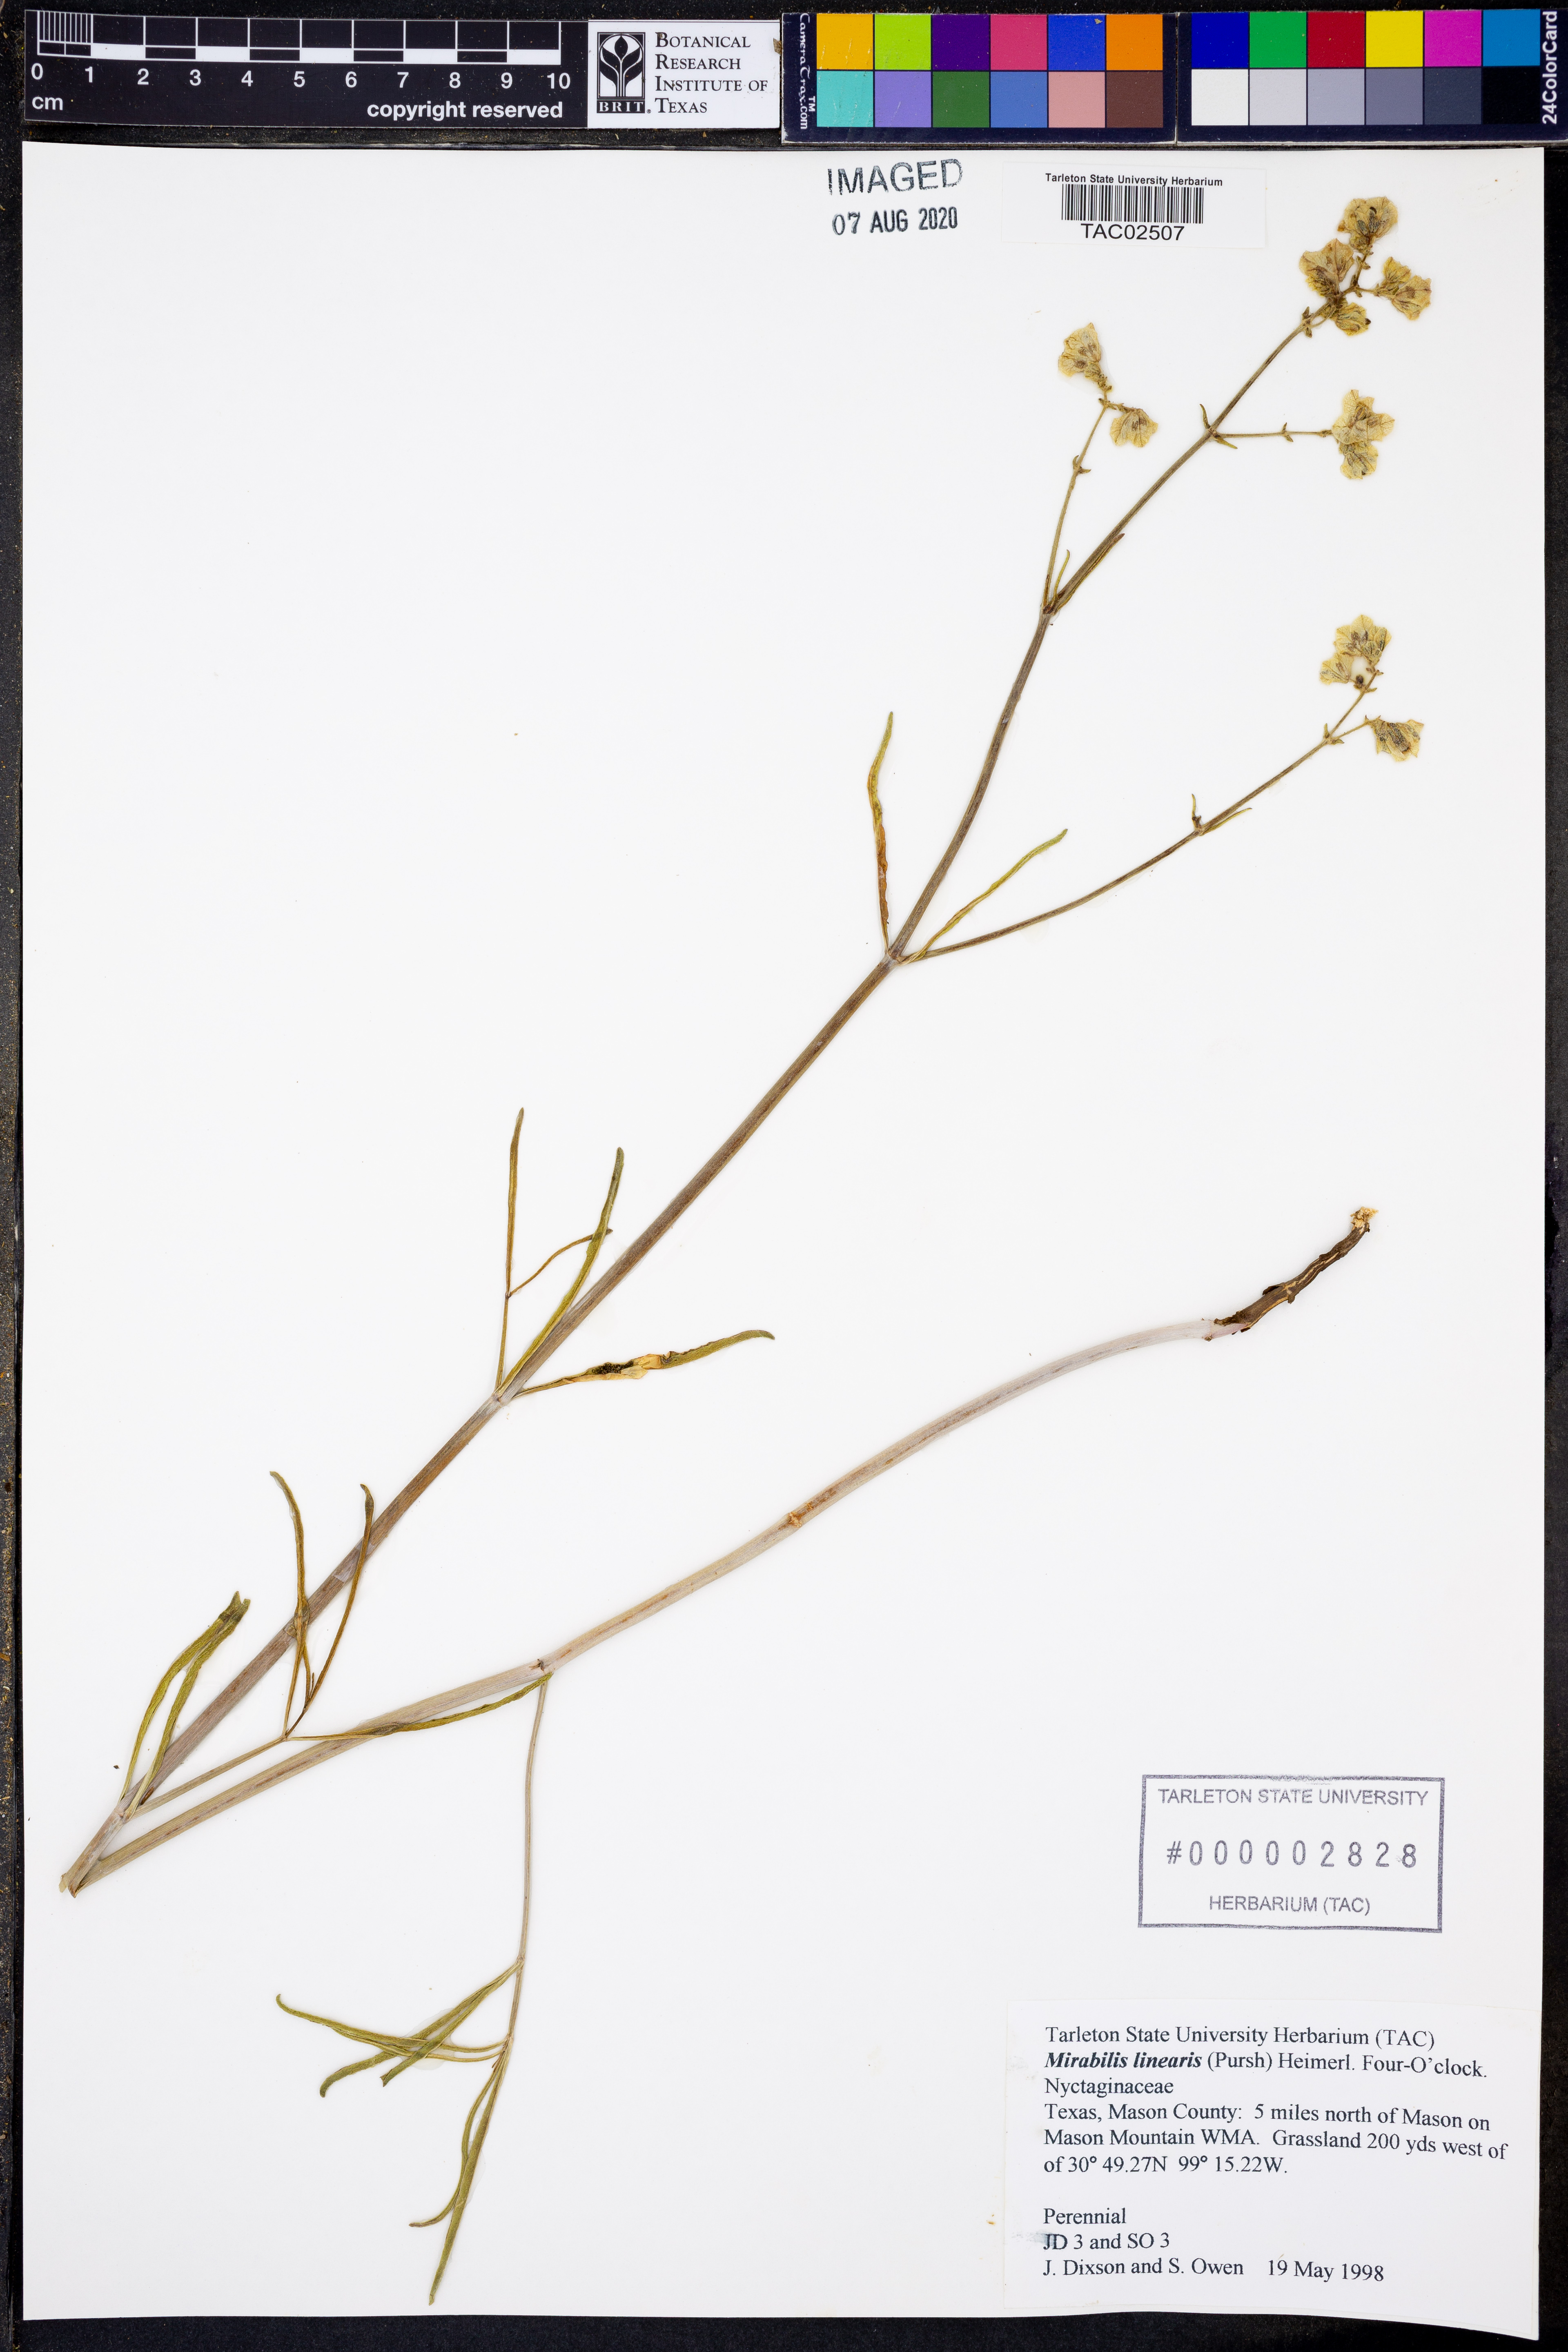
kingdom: Plantae
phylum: Tracheophyta
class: Magnoliopsida
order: Caryophyllales
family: Nyctaginaceae
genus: Mirabilis
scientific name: Mirabilis linearis
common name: Linear-leaved four-o'clock
